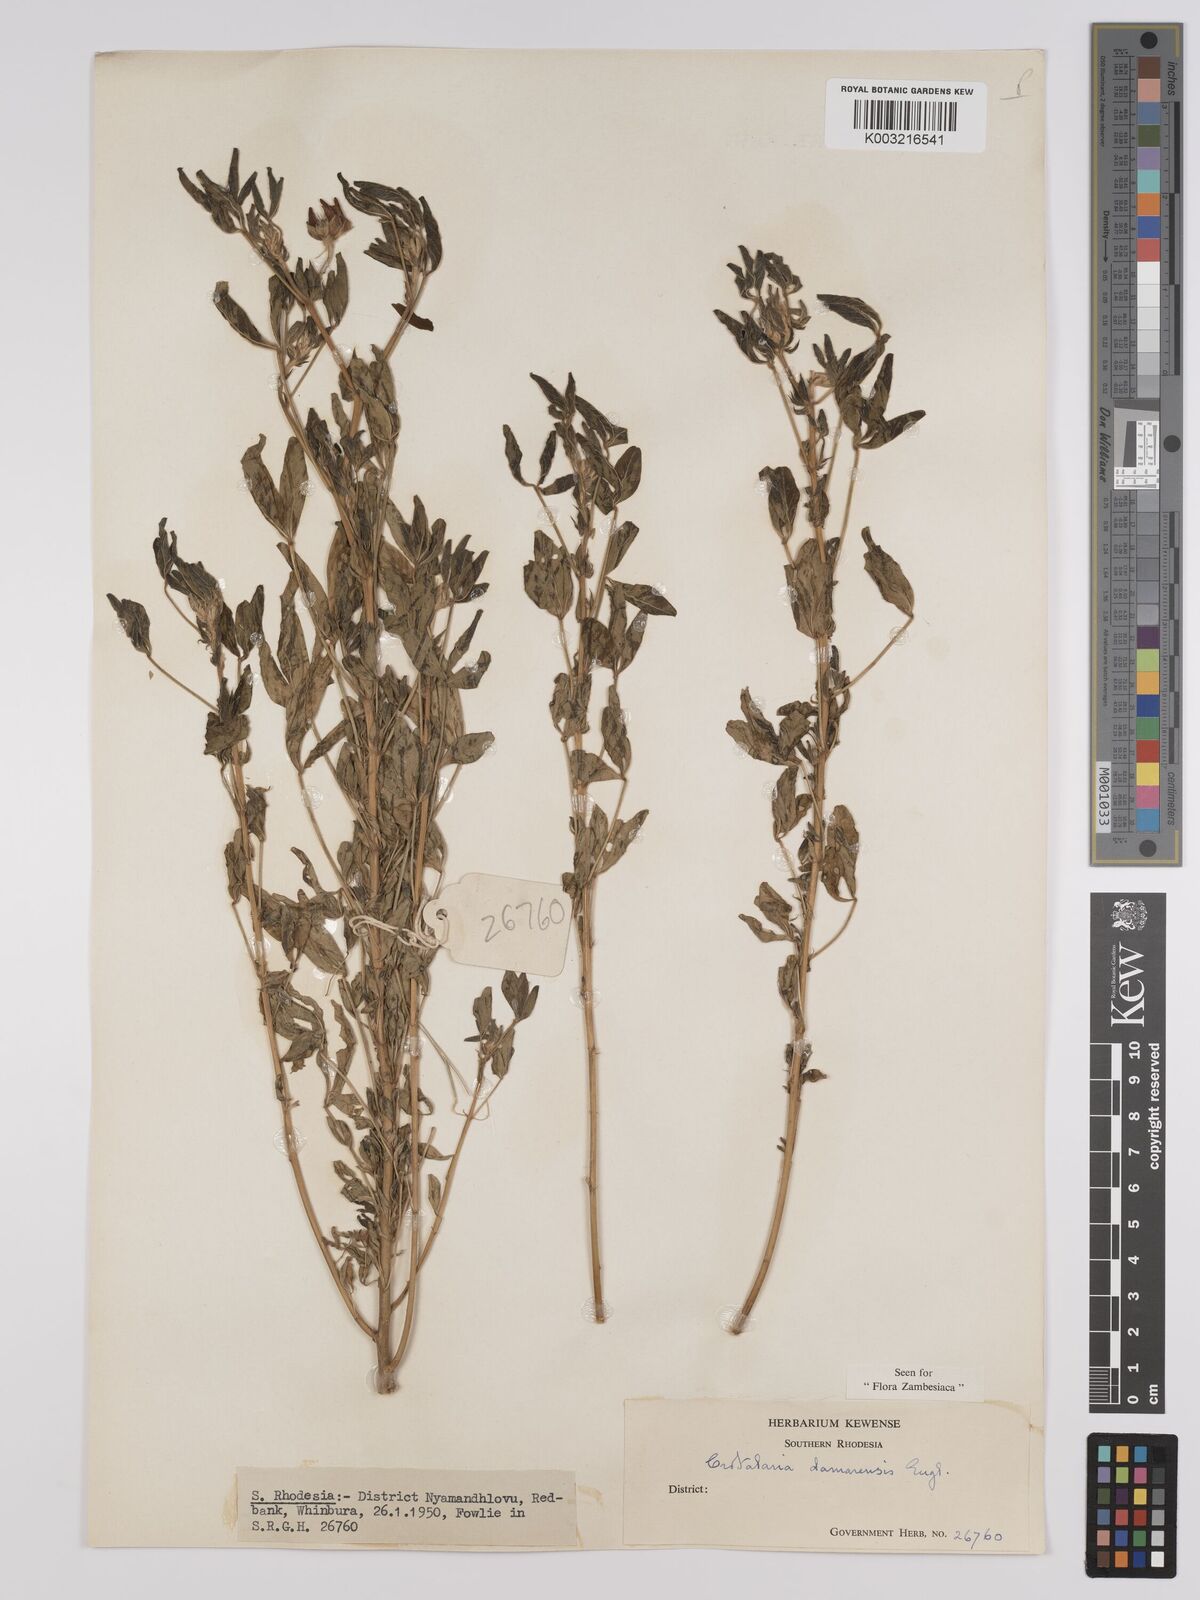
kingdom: Plantae
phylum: Tracheophyta
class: Magnoliopsida
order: Fabales
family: Fabaceae
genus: Crotalaria
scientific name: Crotalaria damarensis
